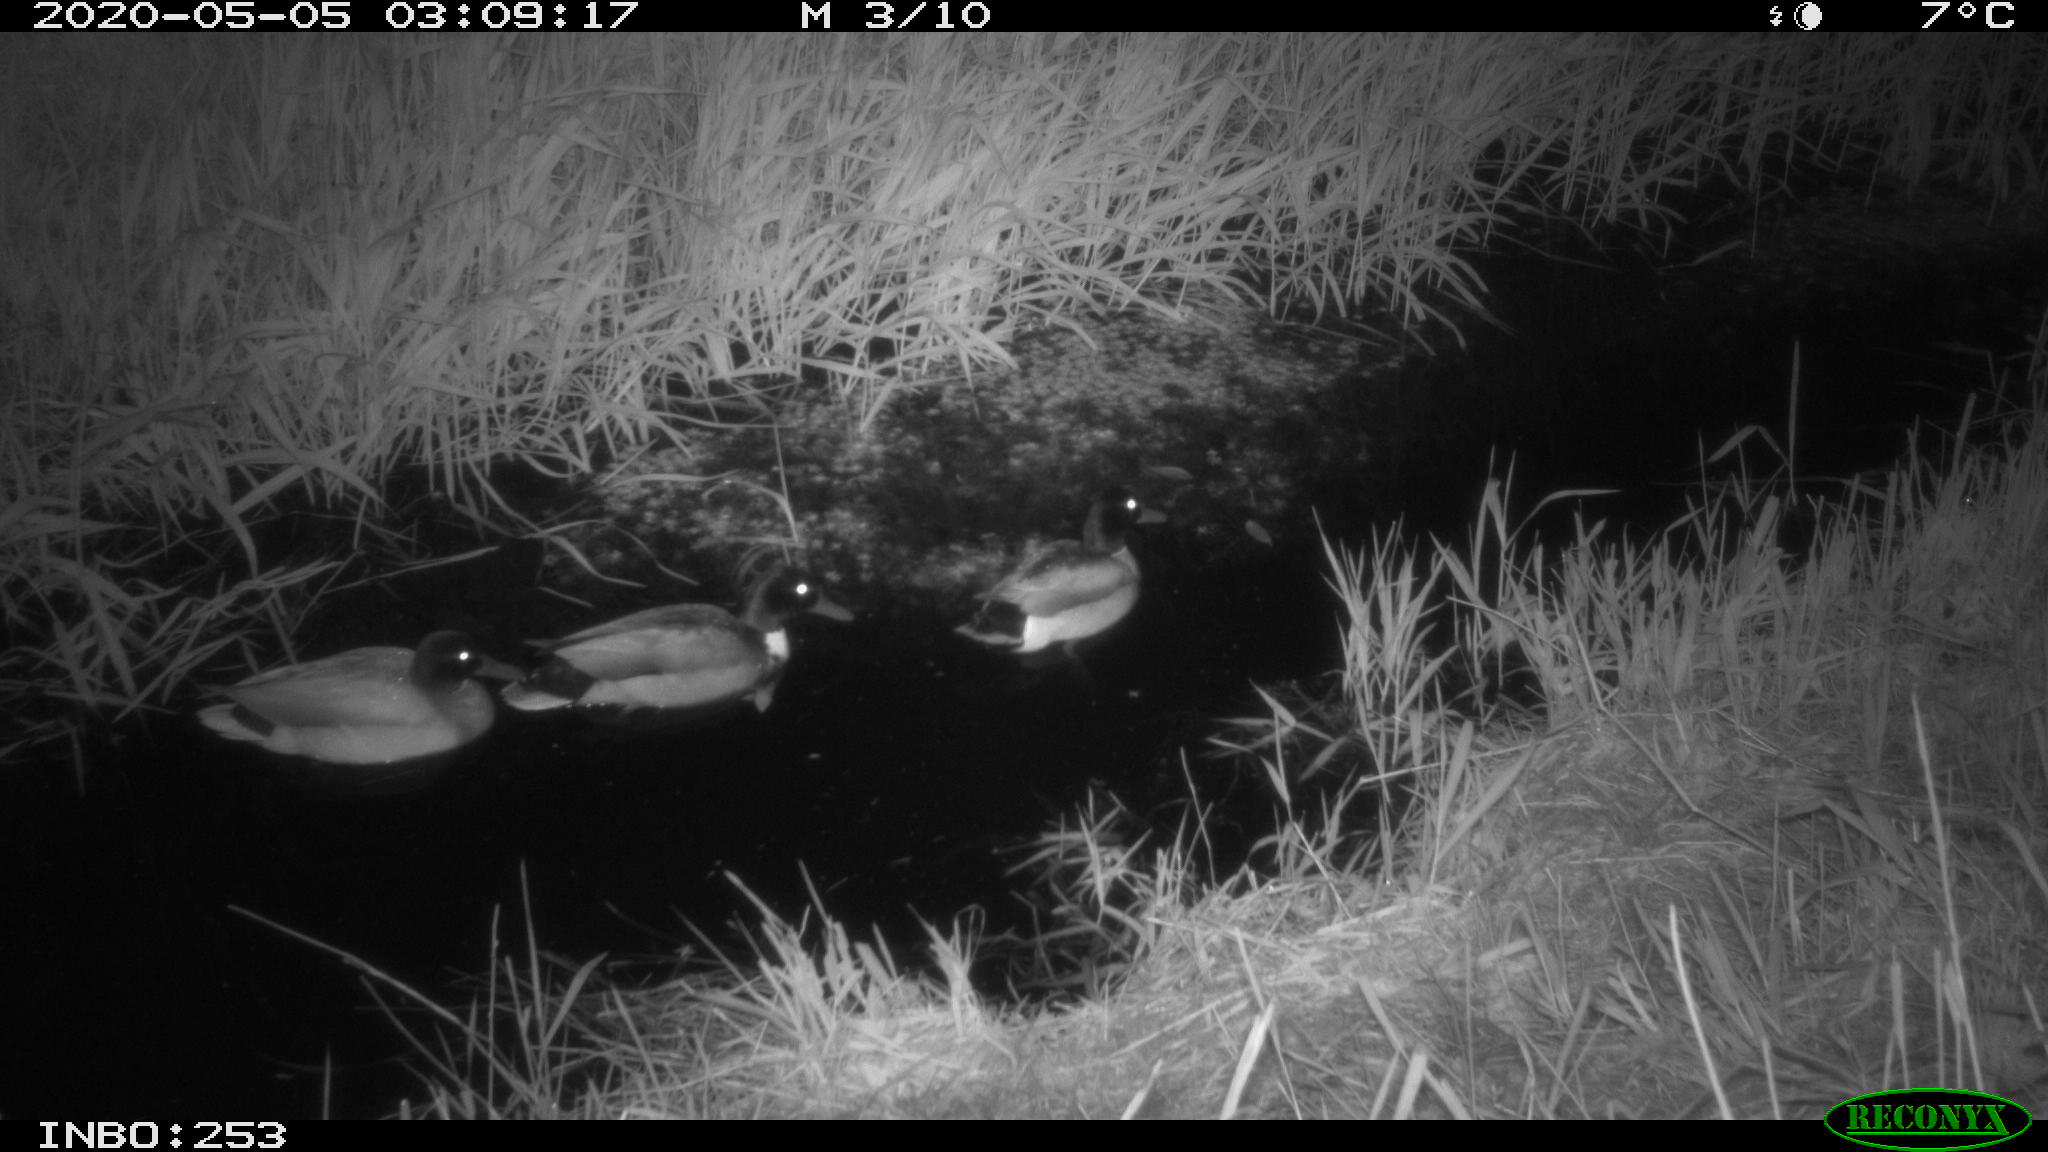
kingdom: Animalia
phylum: Chordata
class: Aves
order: Anseriformes
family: Anatidae
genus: Anas
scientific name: Anas platyrhynchos
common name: Mallard
